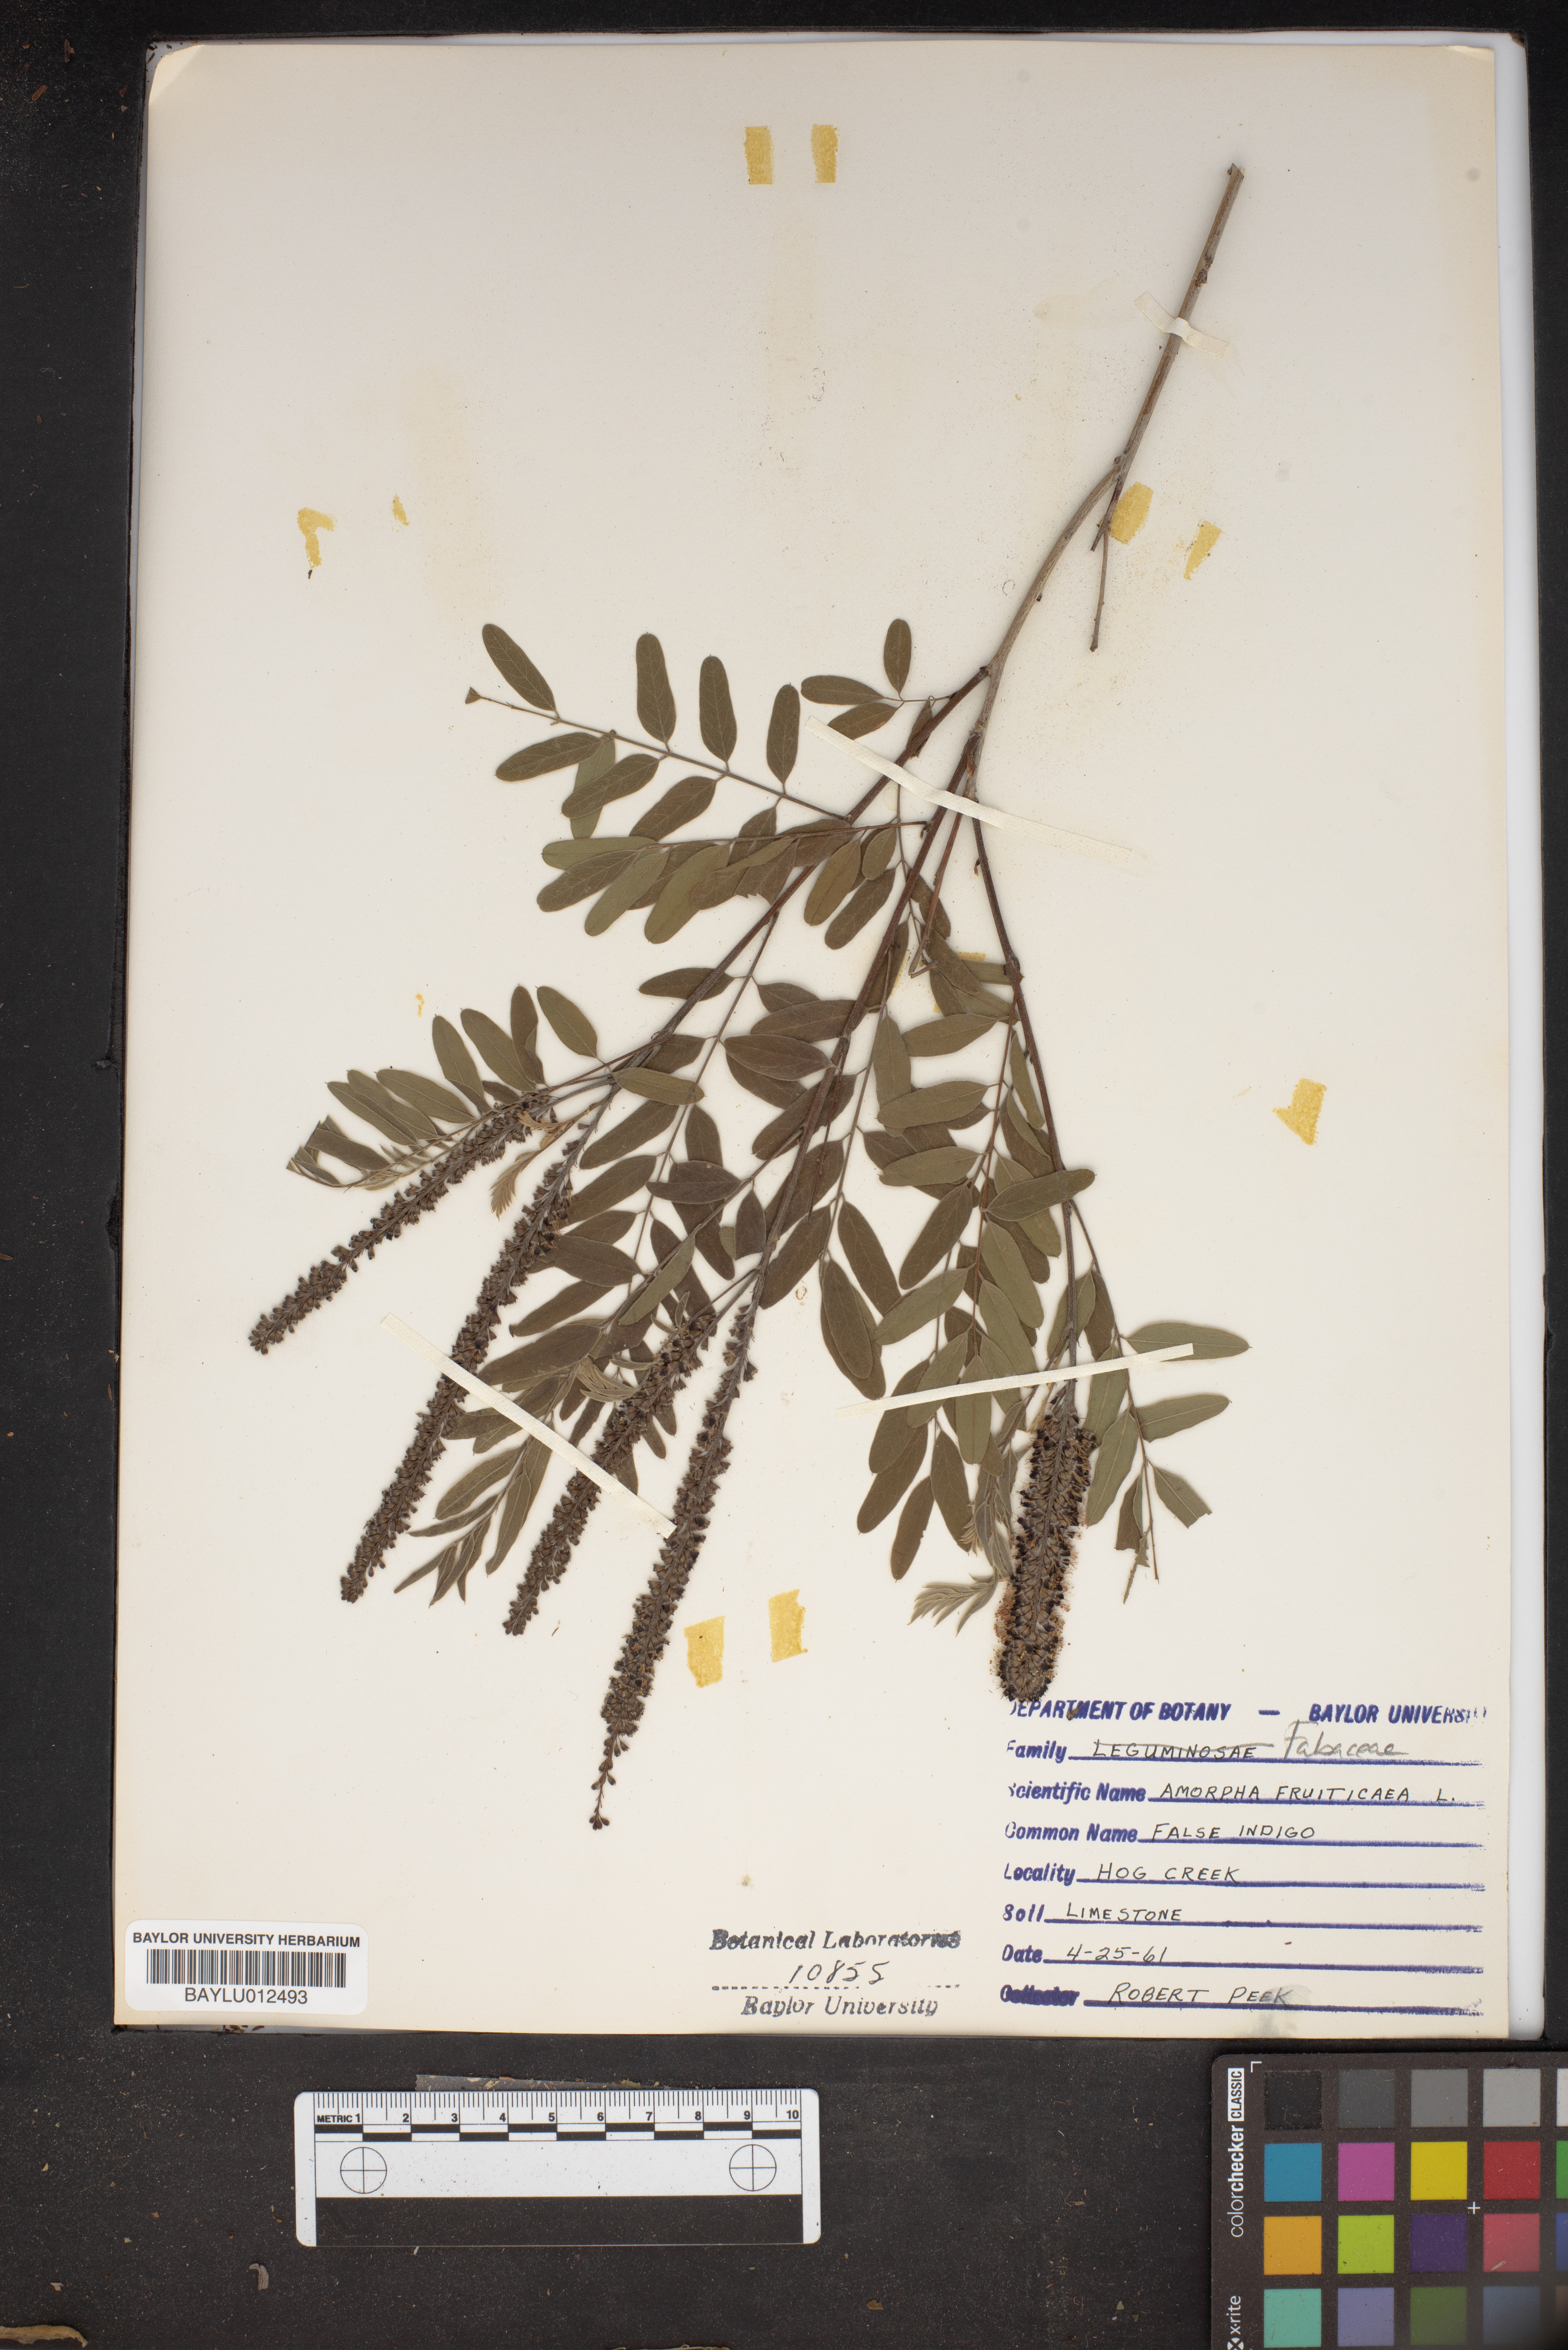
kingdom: Plantae
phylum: Tracheophyta
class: Magnoliopsida
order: Fabales
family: Fabaceae
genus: Amorpha
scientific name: Amorpha fruticosa
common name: False indigo
